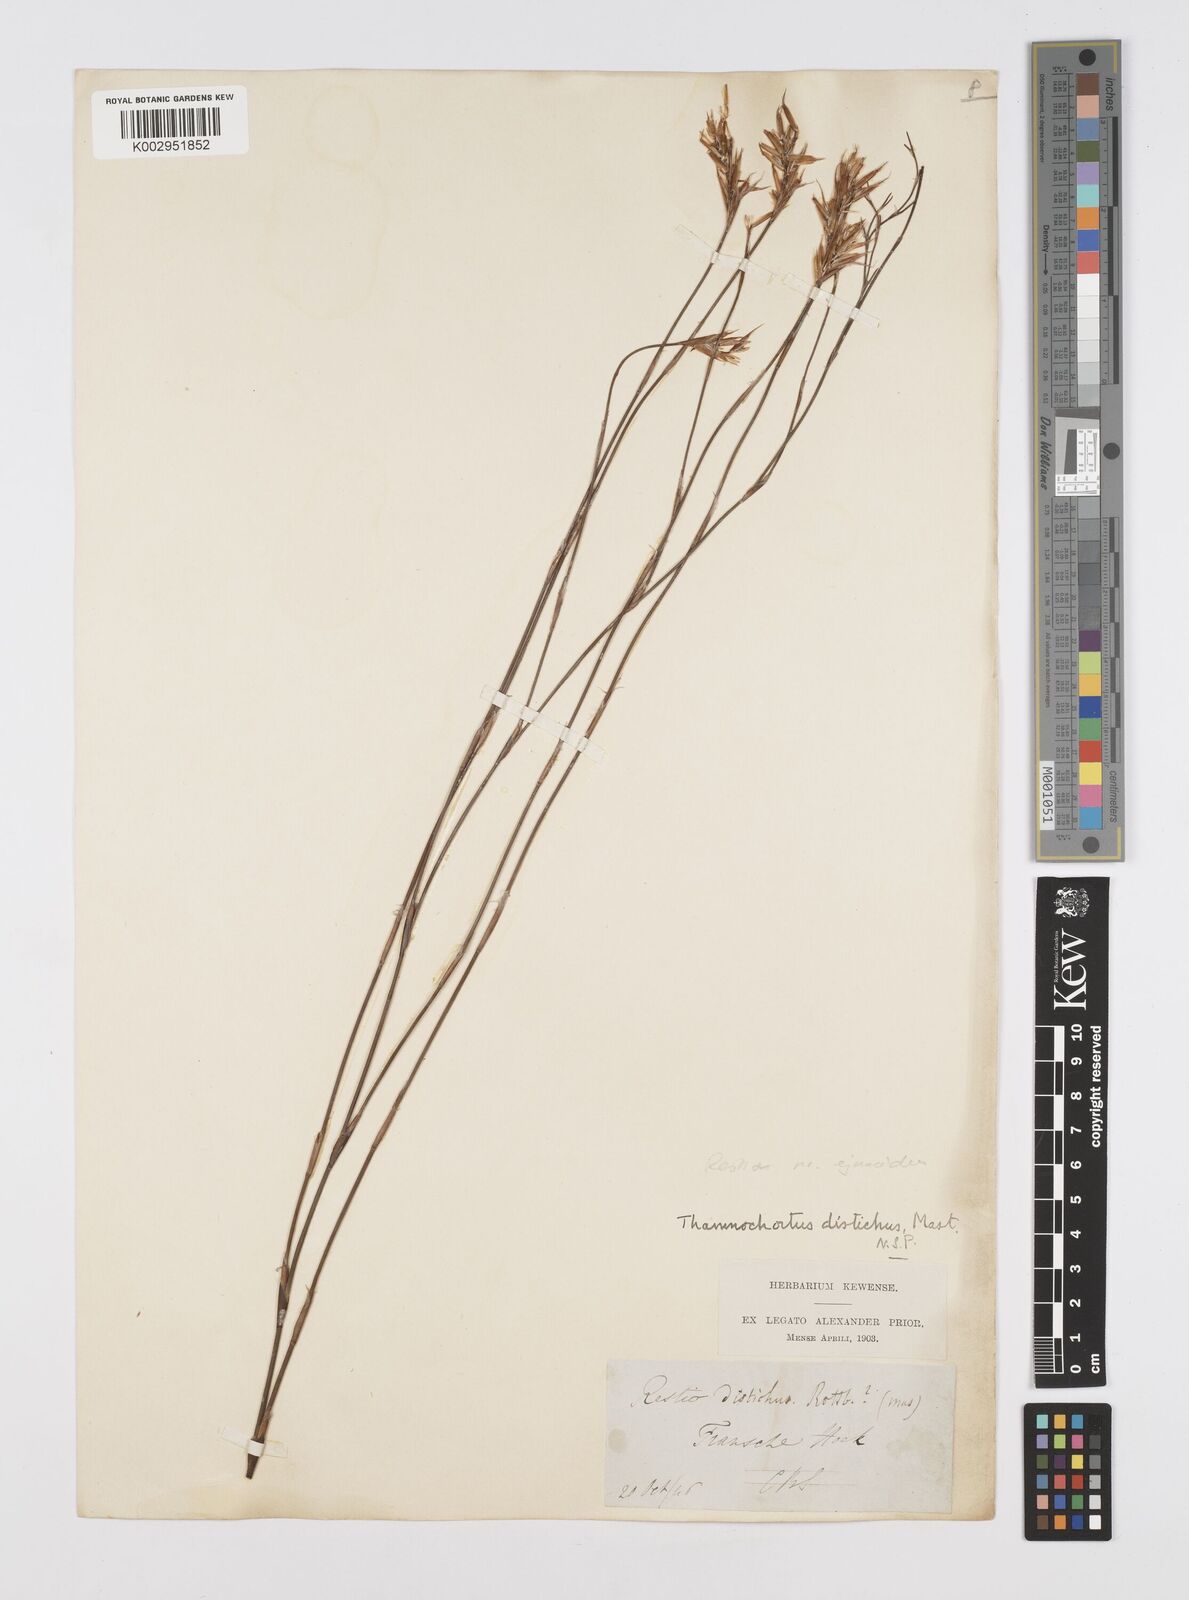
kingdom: Plantae
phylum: Tracheophyta
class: Liliopsida
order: Poales
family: Restionaceae
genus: Restio
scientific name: Restio
